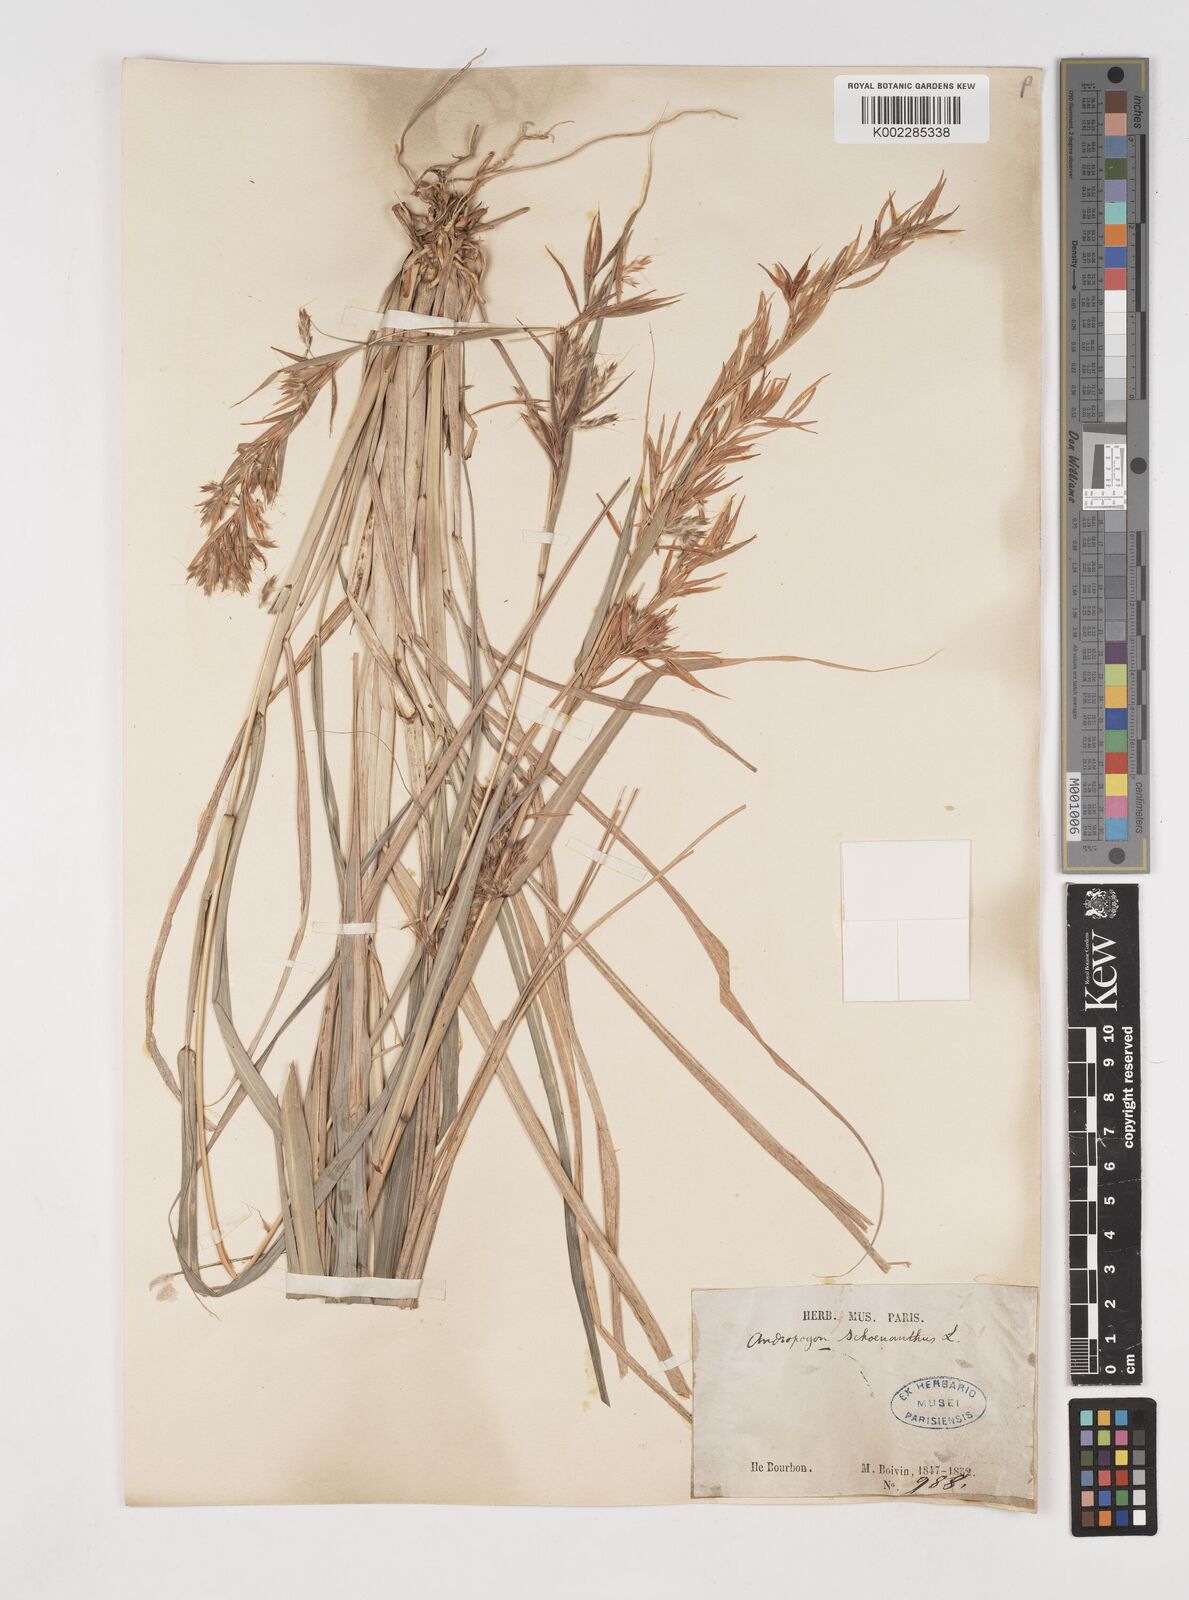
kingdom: Plantae
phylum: Tracheophyta
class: Liliopsida
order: Poales
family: Poaceae
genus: Cymbopogon
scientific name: Cymbopogon pruinosus
